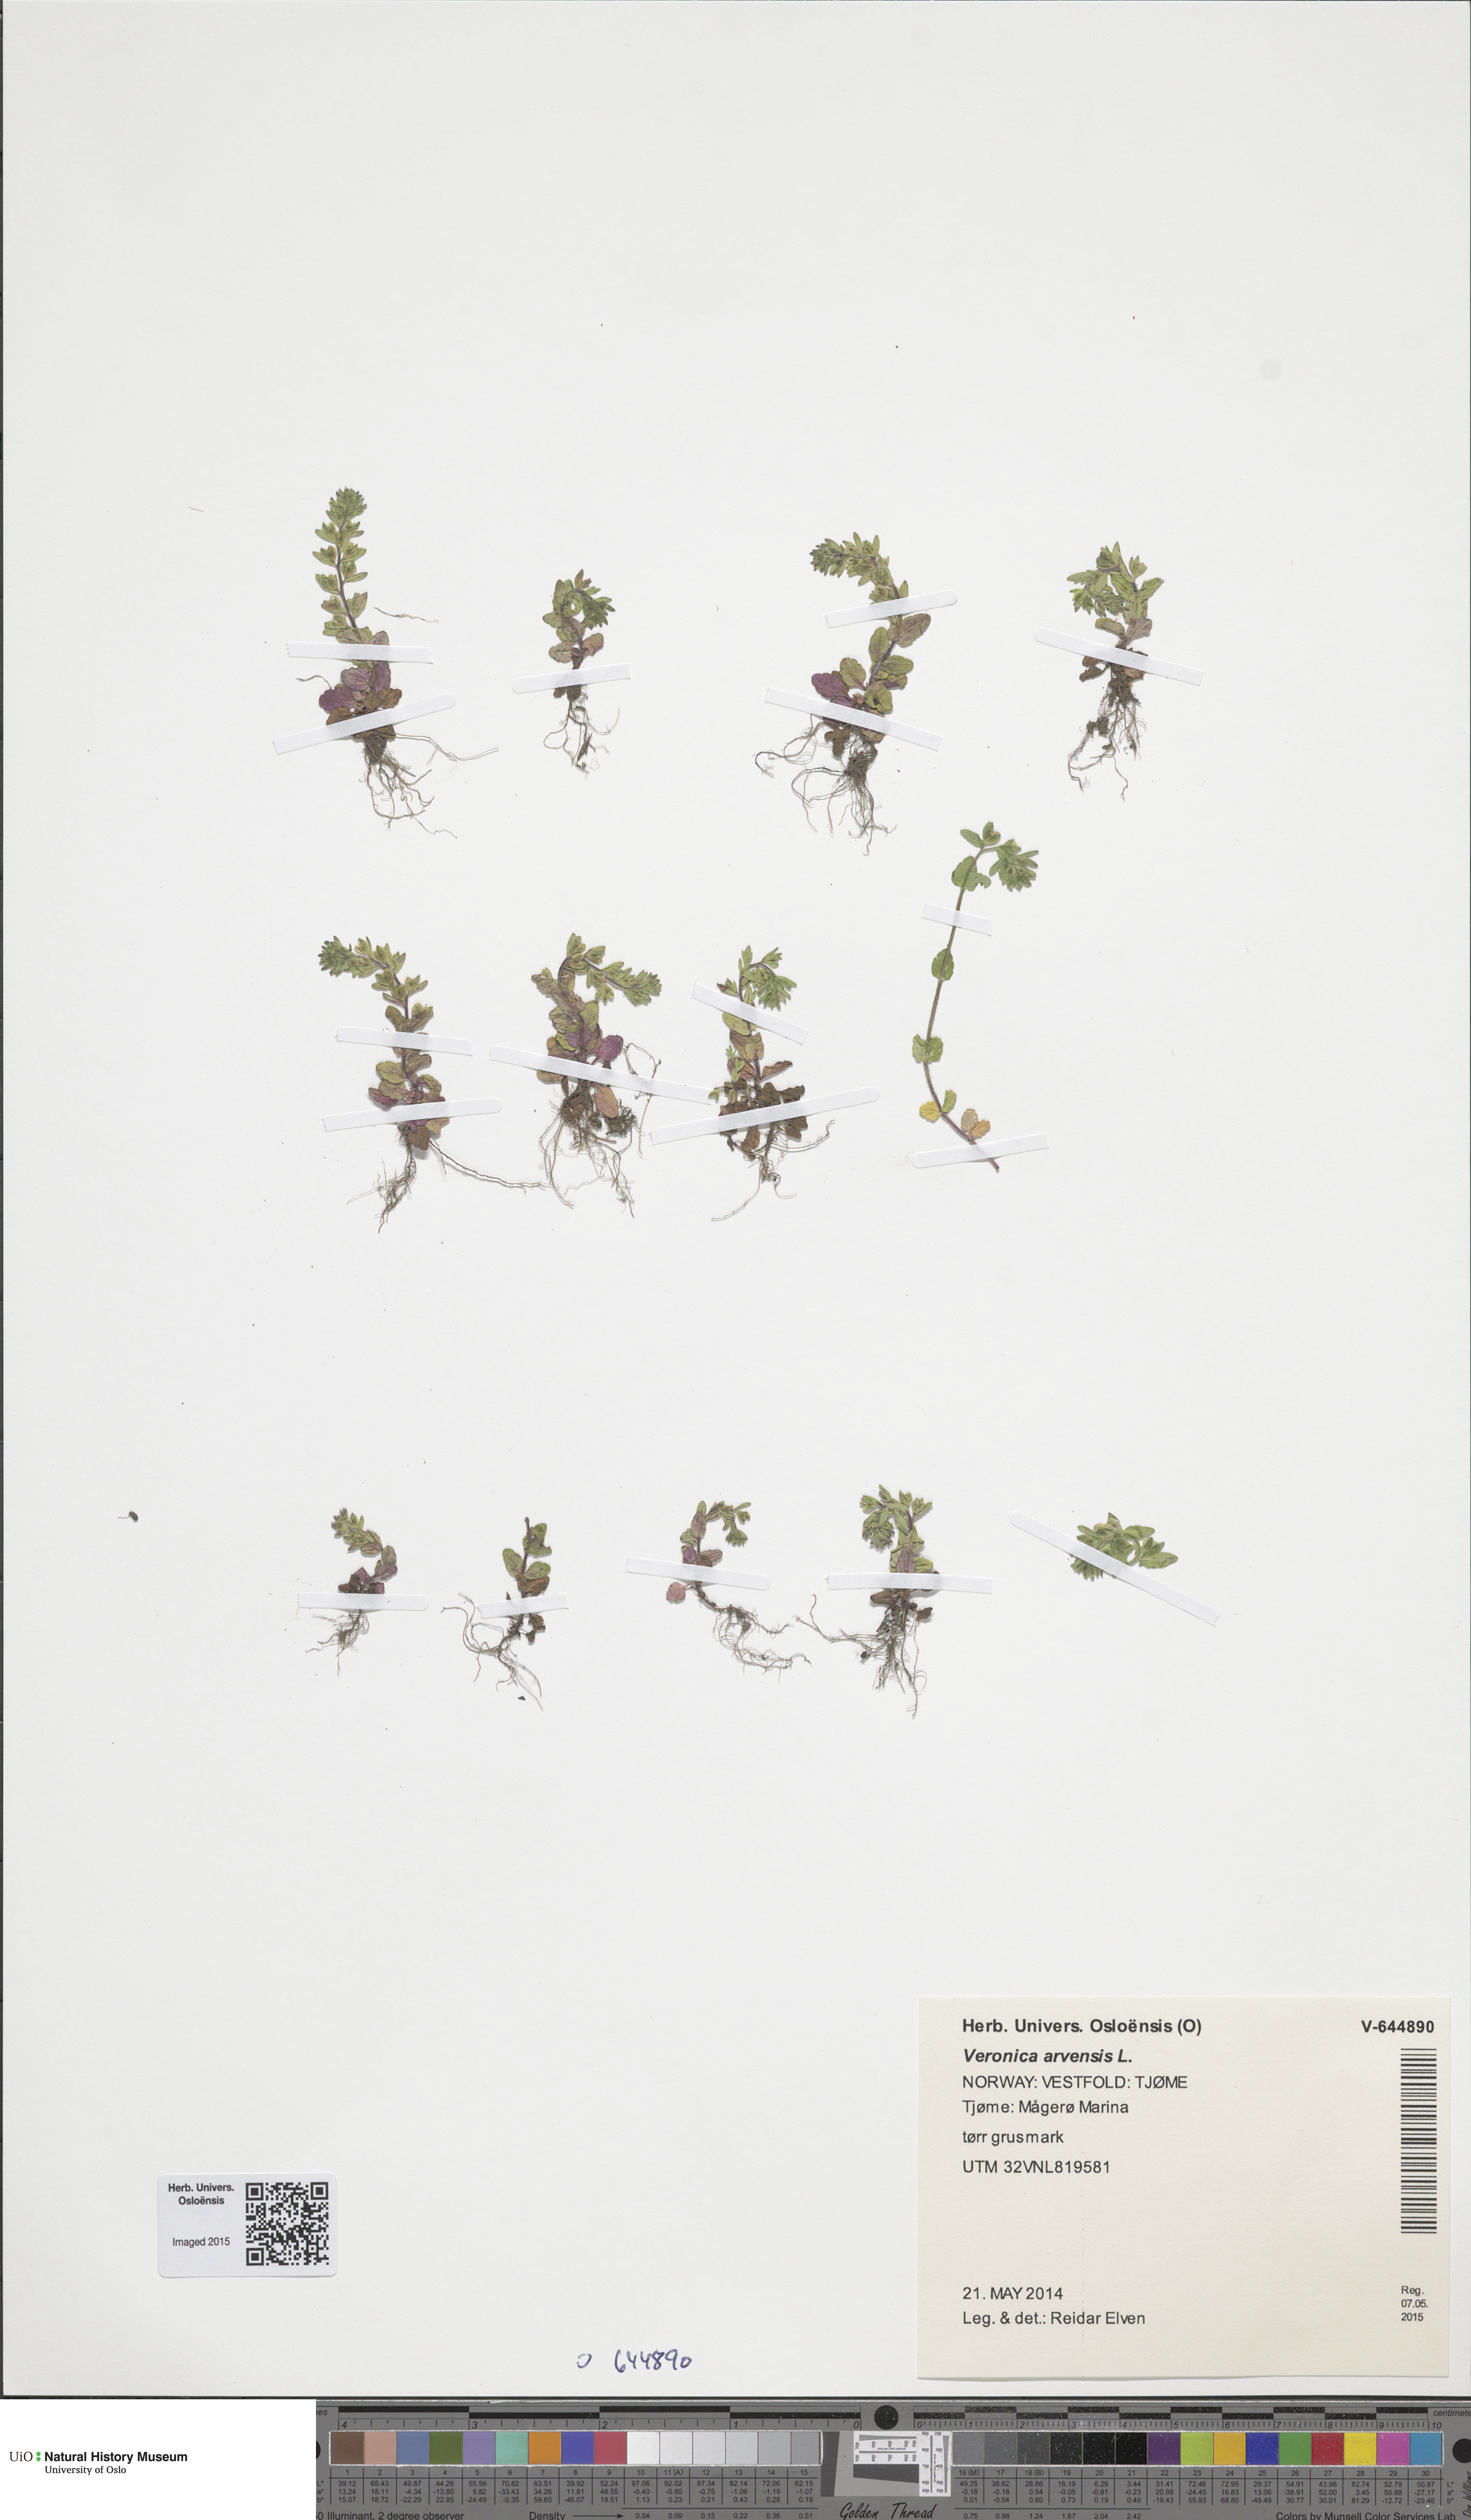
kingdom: Plantae
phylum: Tracheophyta
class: Magnoliopsida
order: Lamiales
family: Plantaginaceae
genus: Veronica
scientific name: Veronica arvensis
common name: Corn speedwell
